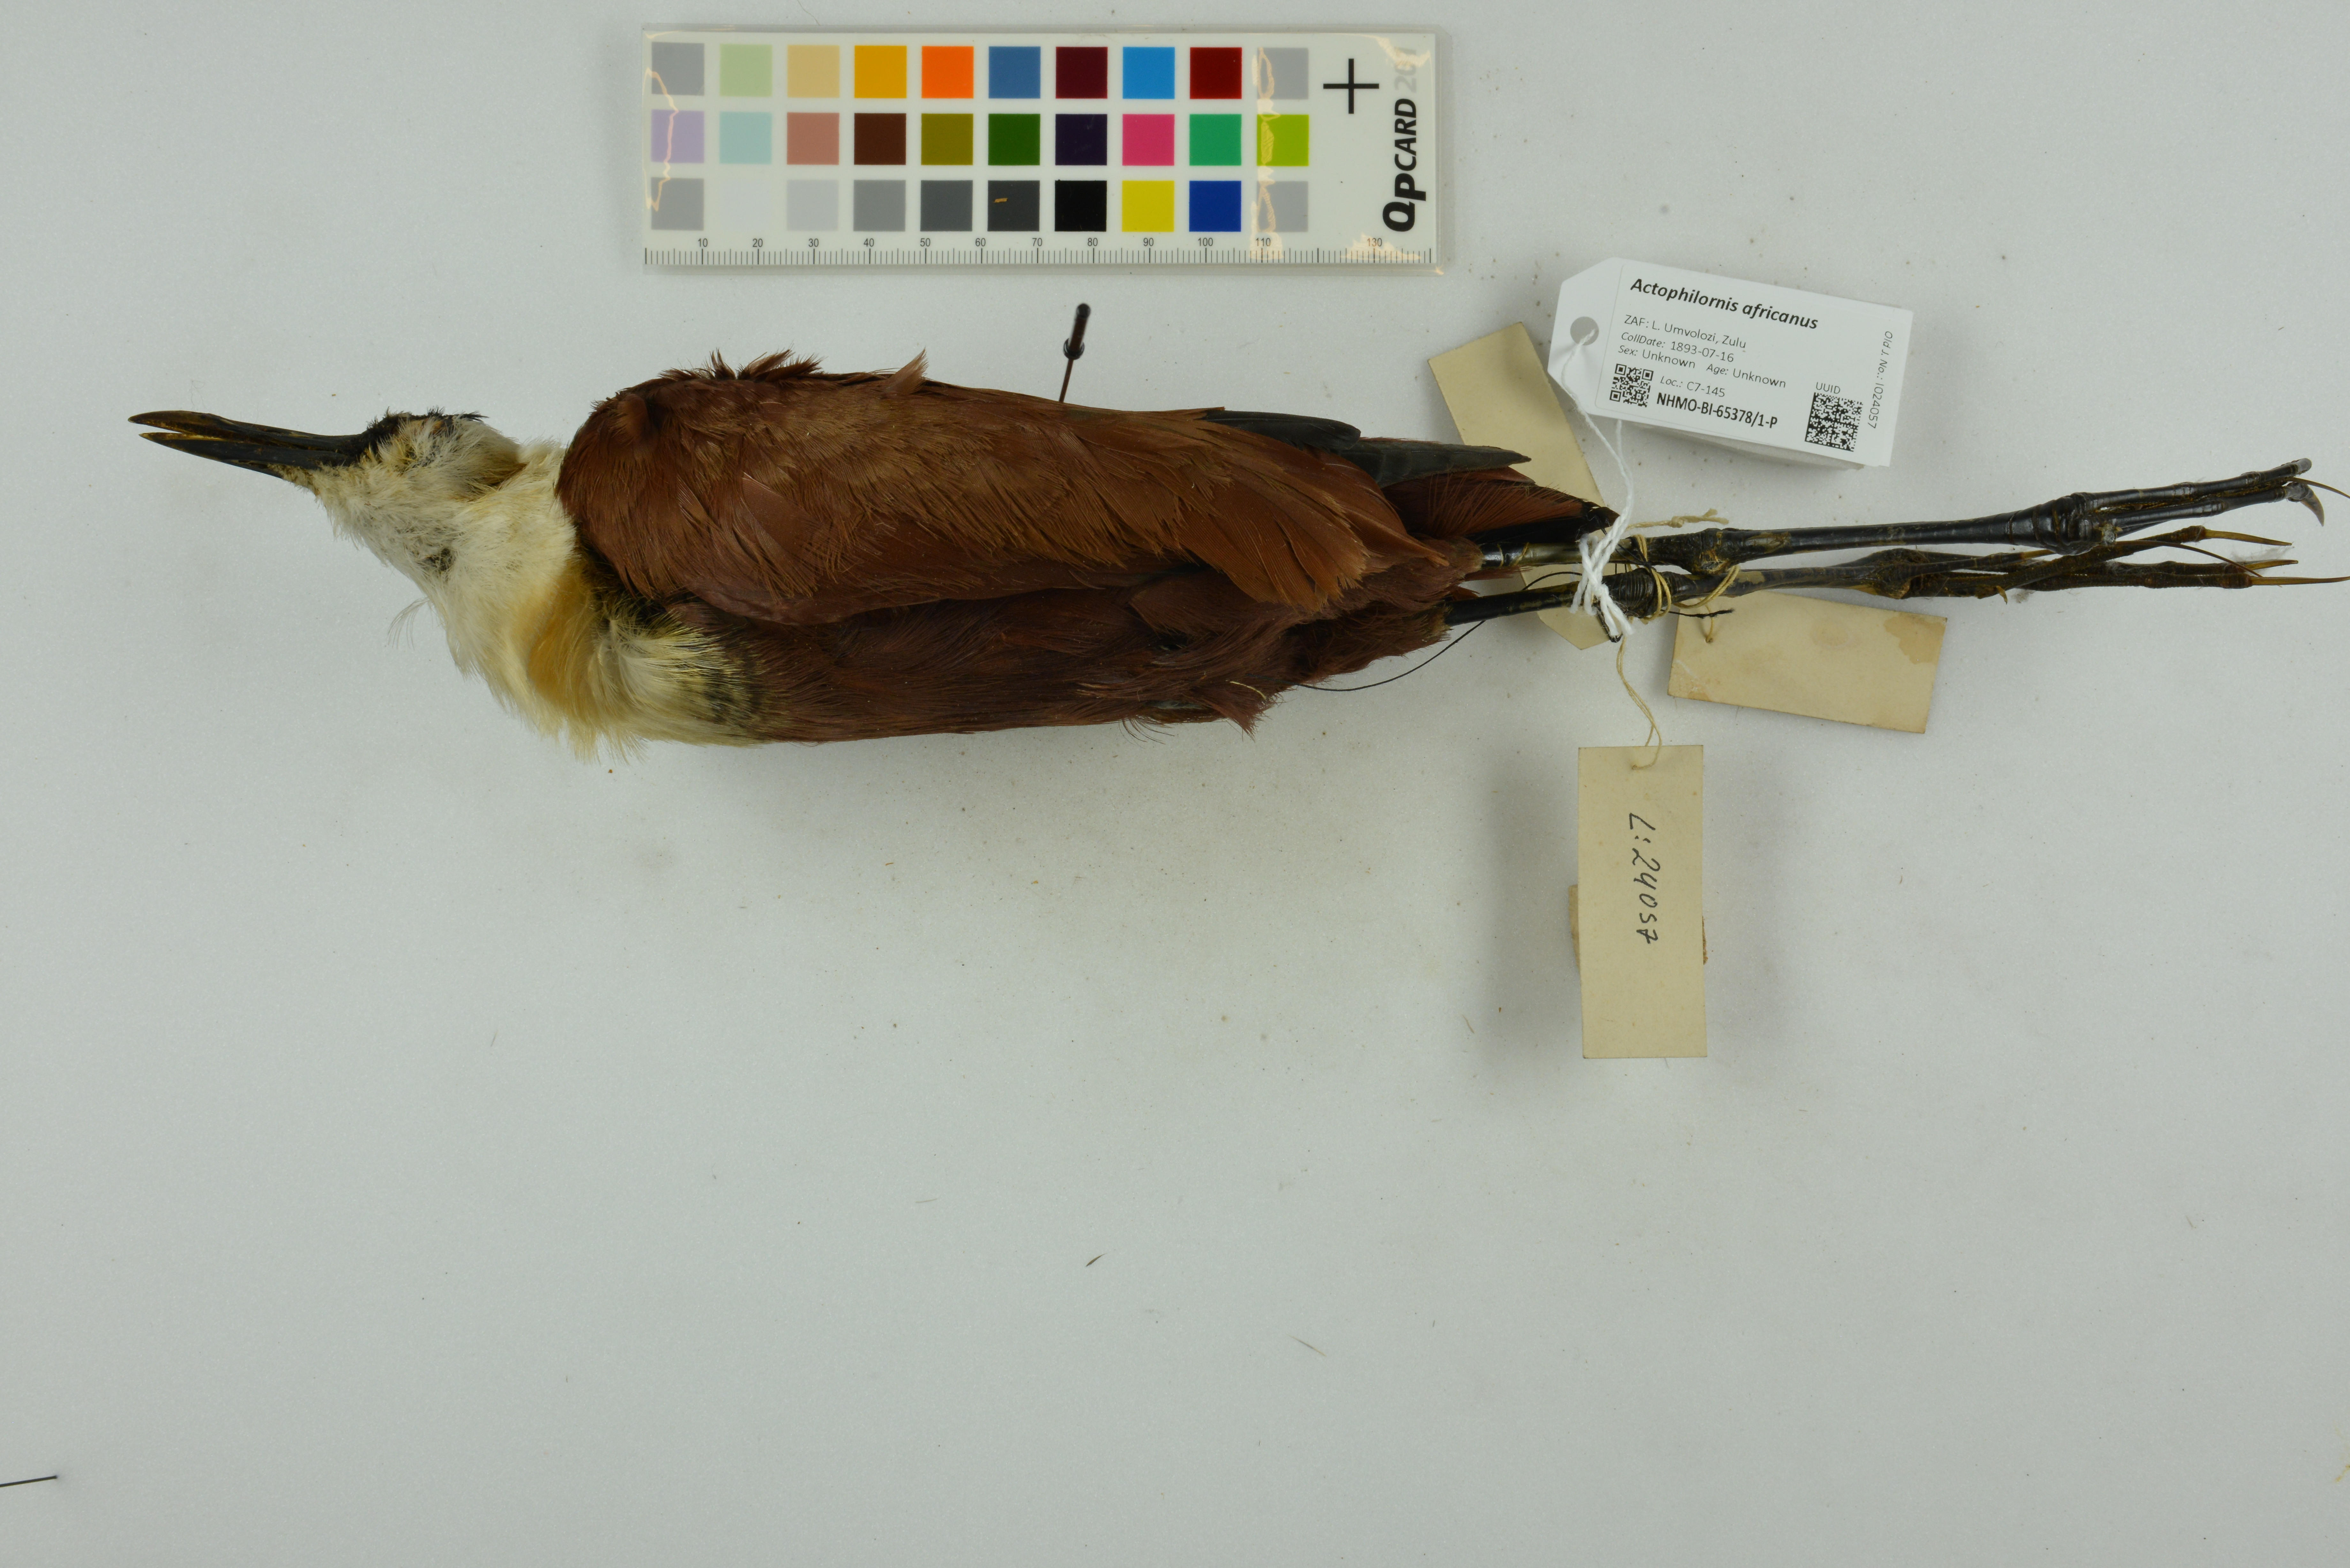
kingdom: Animalia
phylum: Chordata
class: Aves
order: Charadriiformes
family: Jacanidae
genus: Actophilornis
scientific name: Actophilornis africanus
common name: African jacana
